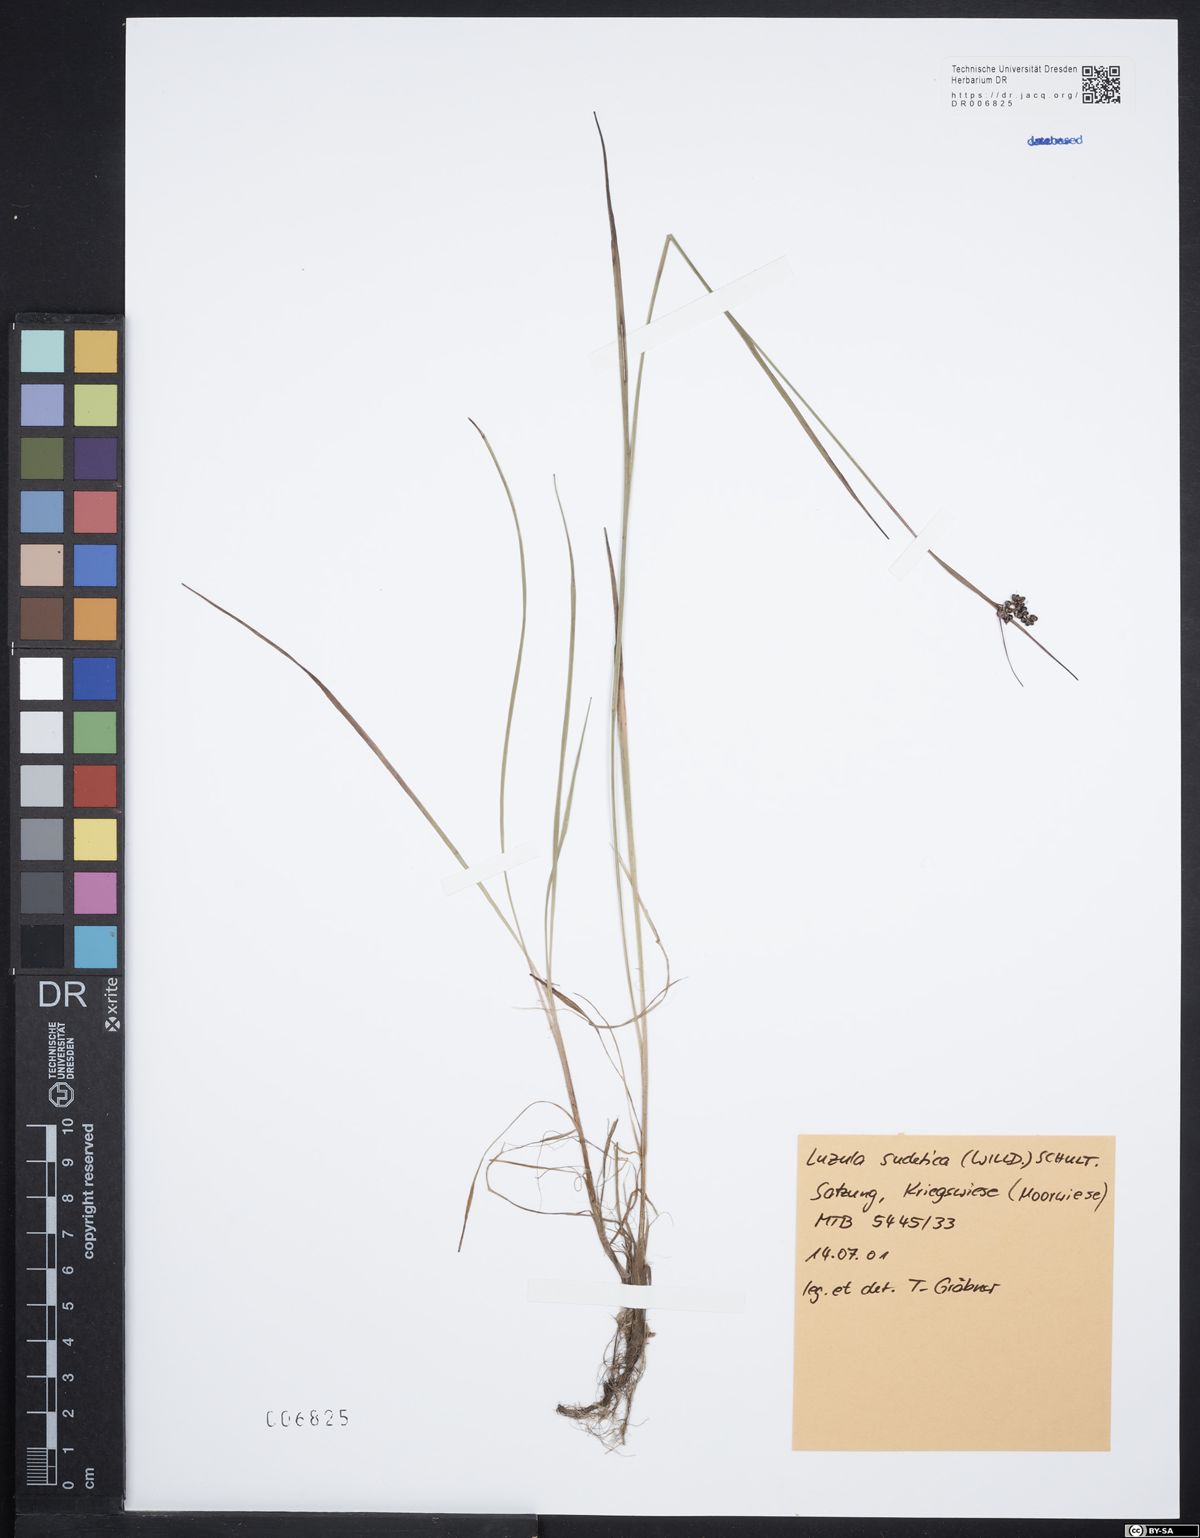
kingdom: Plantae
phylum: Tracheophyta
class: Liliopsida
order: Poales
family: Juncaceae
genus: Luzula
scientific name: Luzula sudetica
